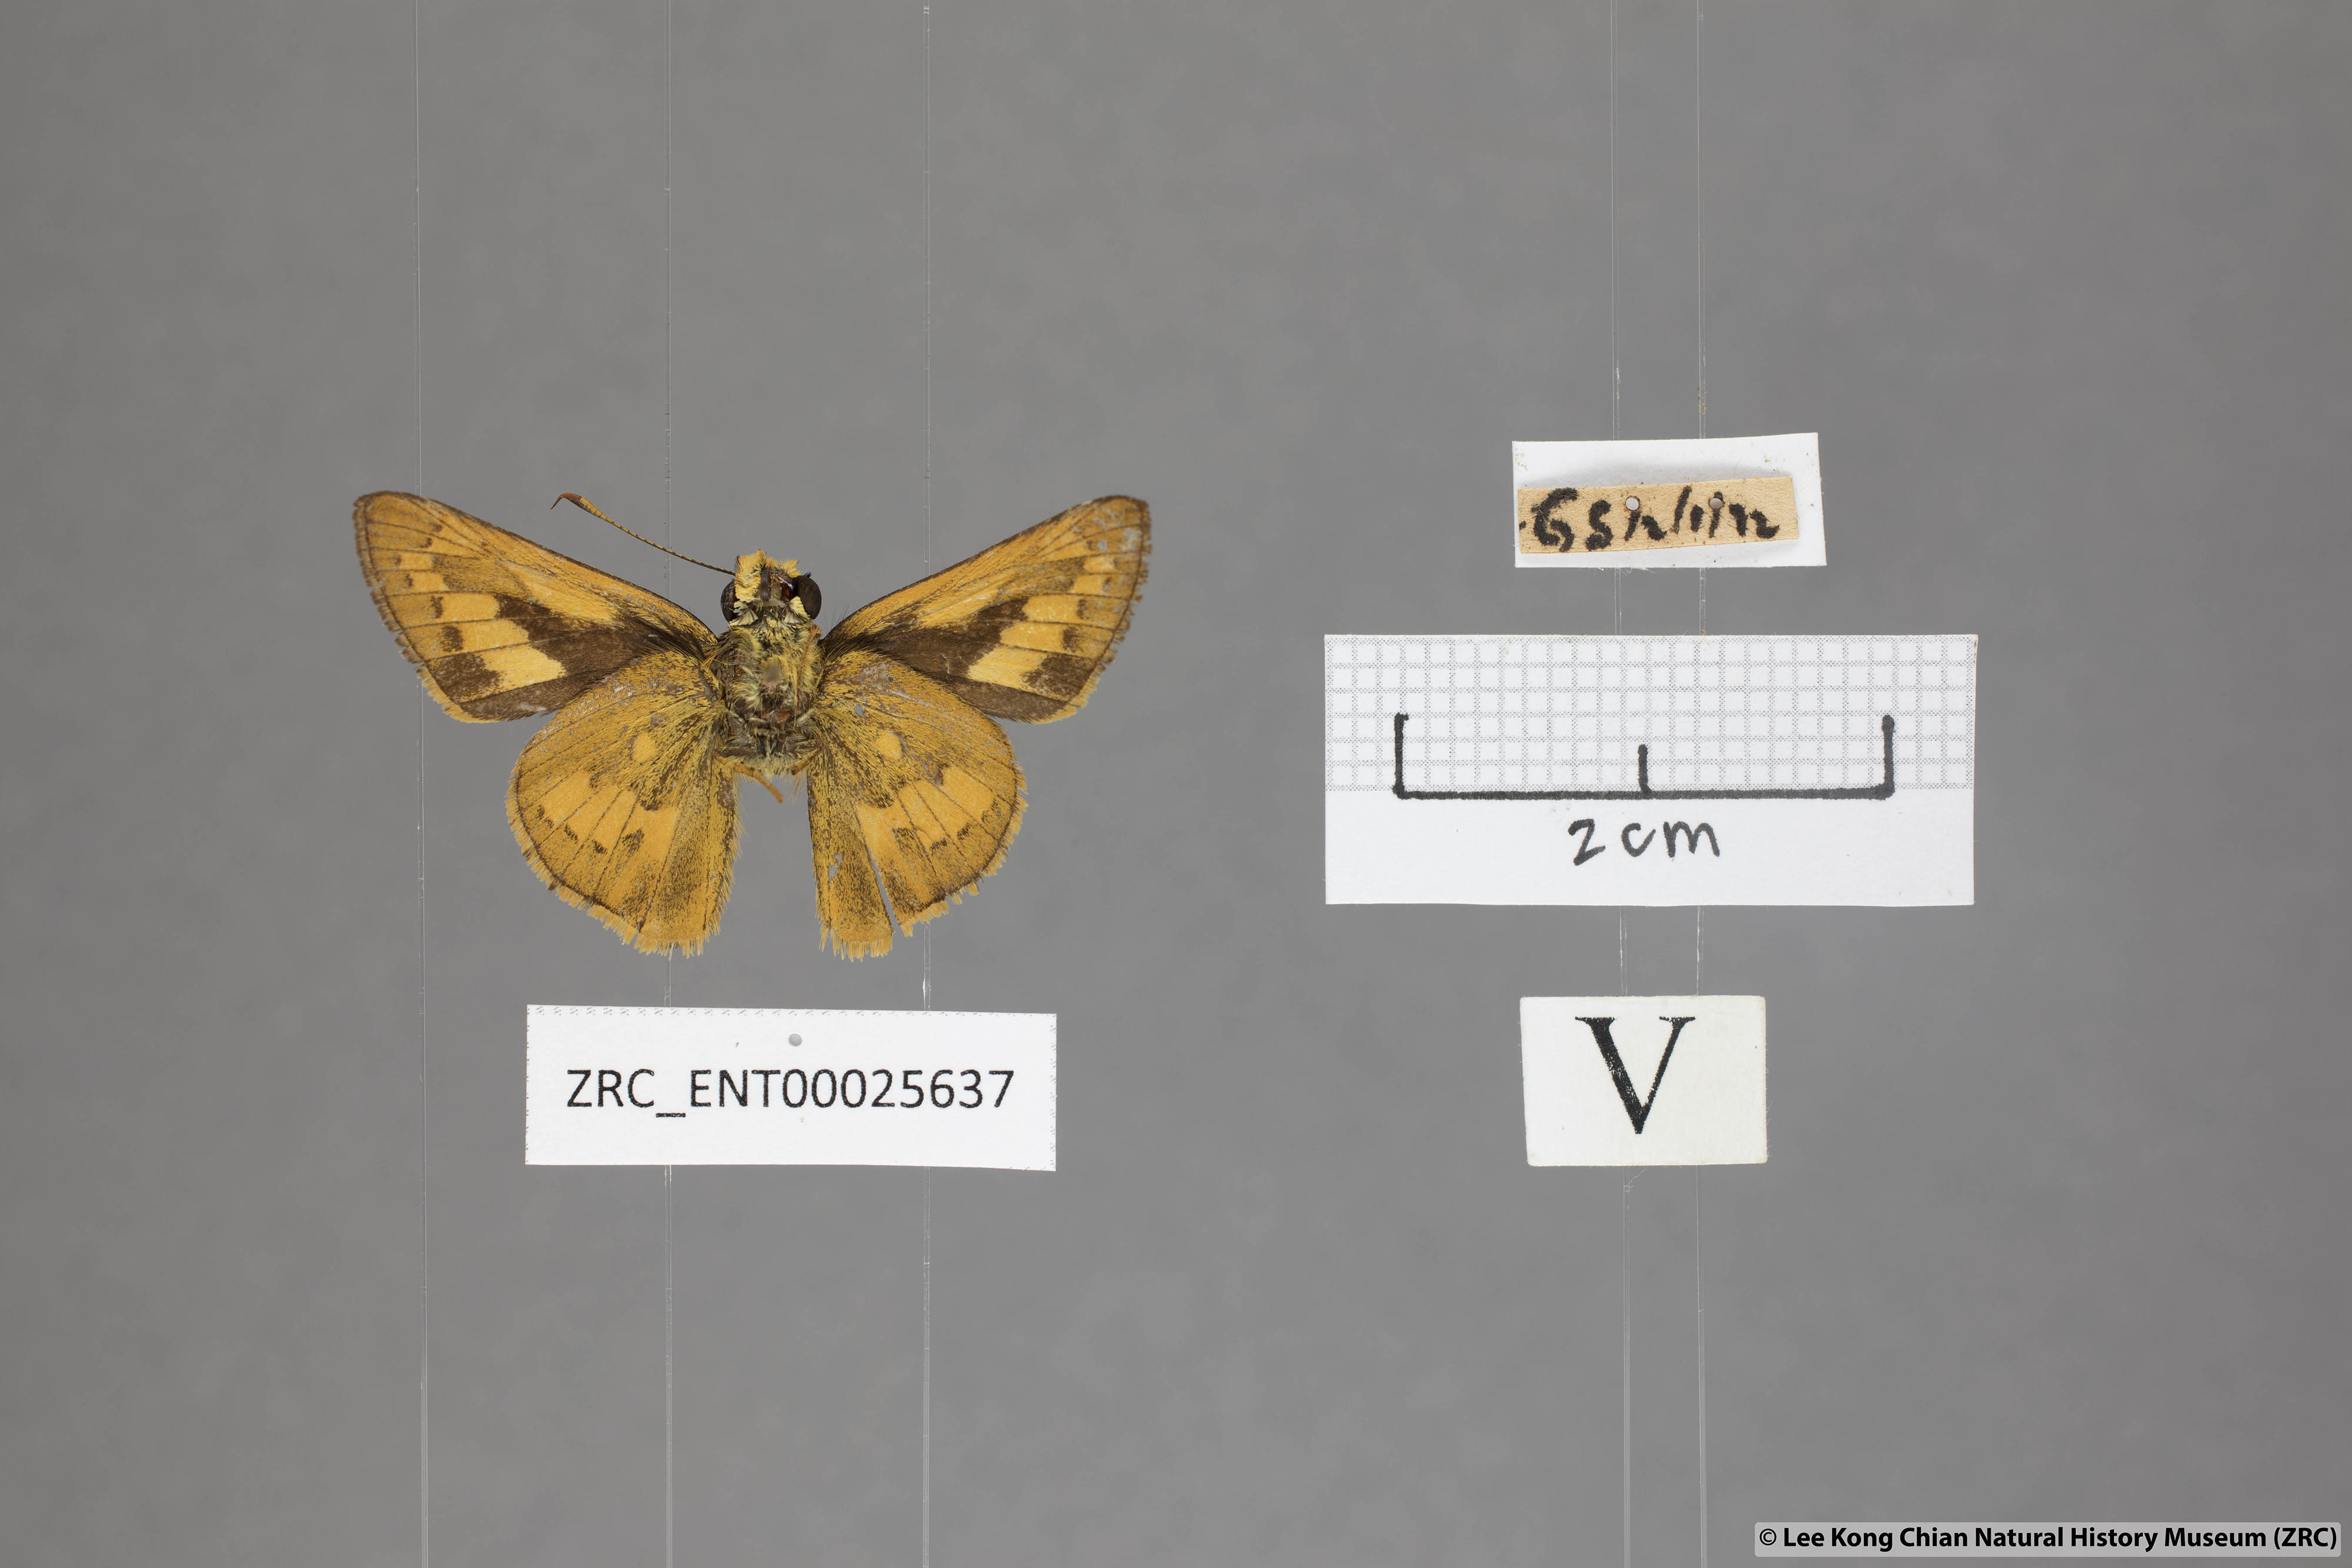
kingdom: Animalia
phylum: Arthropoda
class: Insecta
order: Lepidoptera
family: Hesperiidae
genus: Telicota
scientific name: Telicota besta
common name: Hainan palm dart
